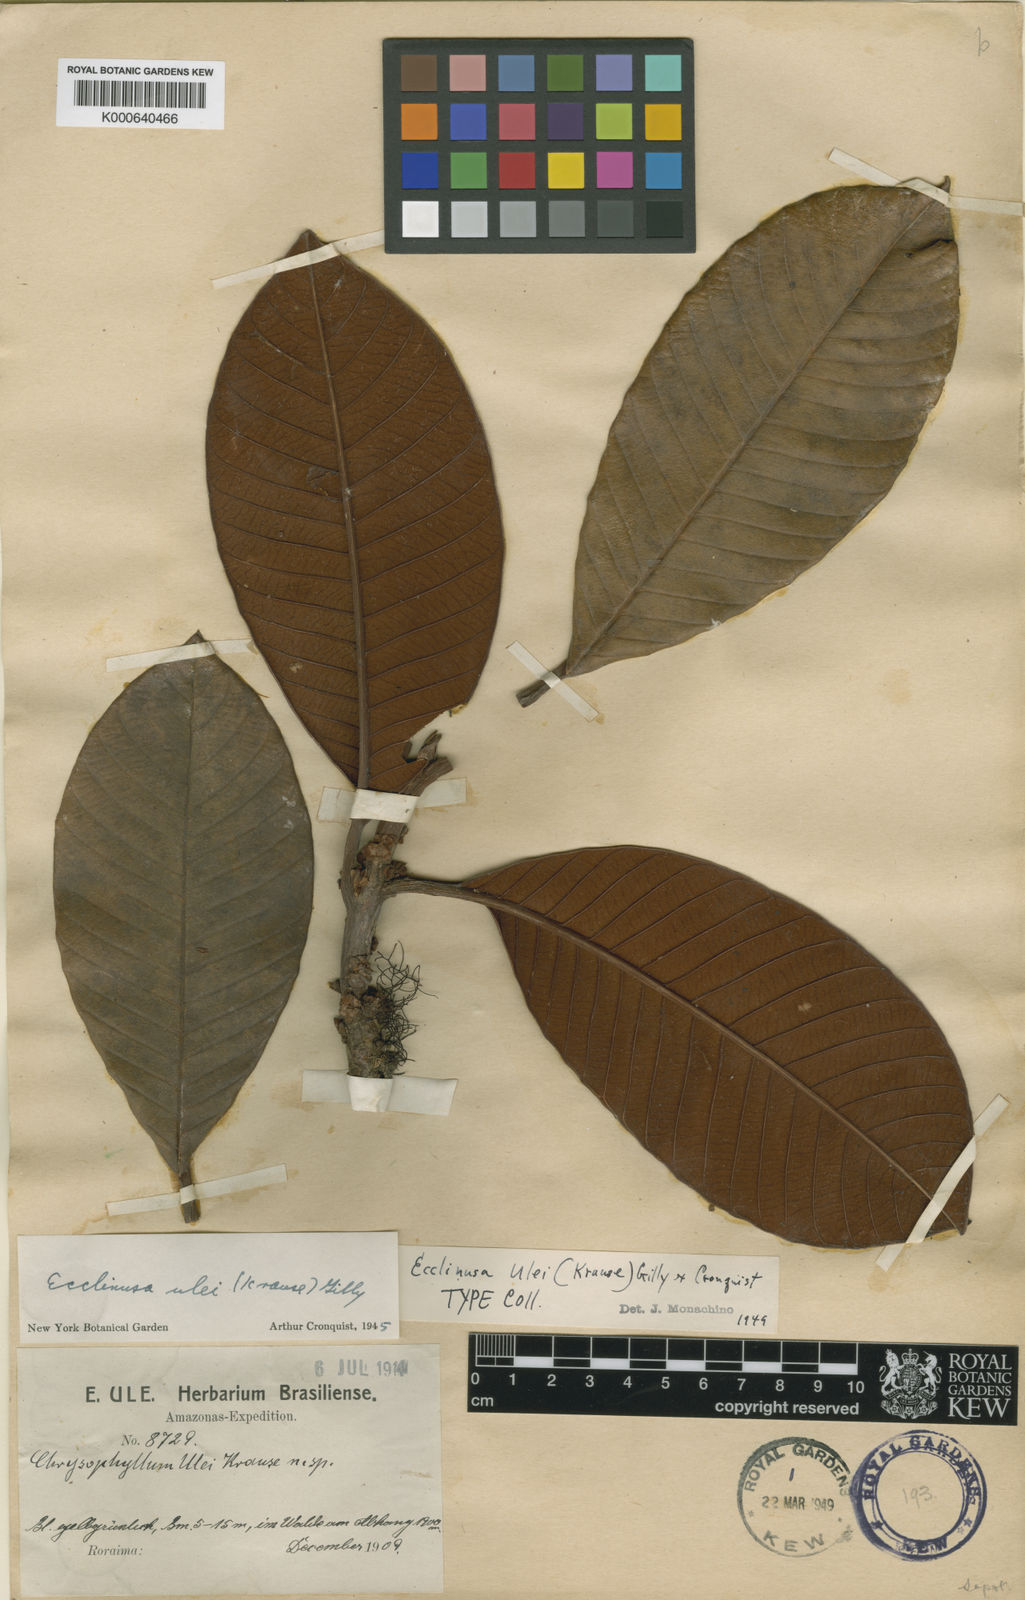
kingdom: Plantae
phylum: Tracheophyta
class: Magnoliopsida
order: Ericales
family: Sapotaceae
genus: Ecclinusa
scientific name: Ecclinusa ulei
